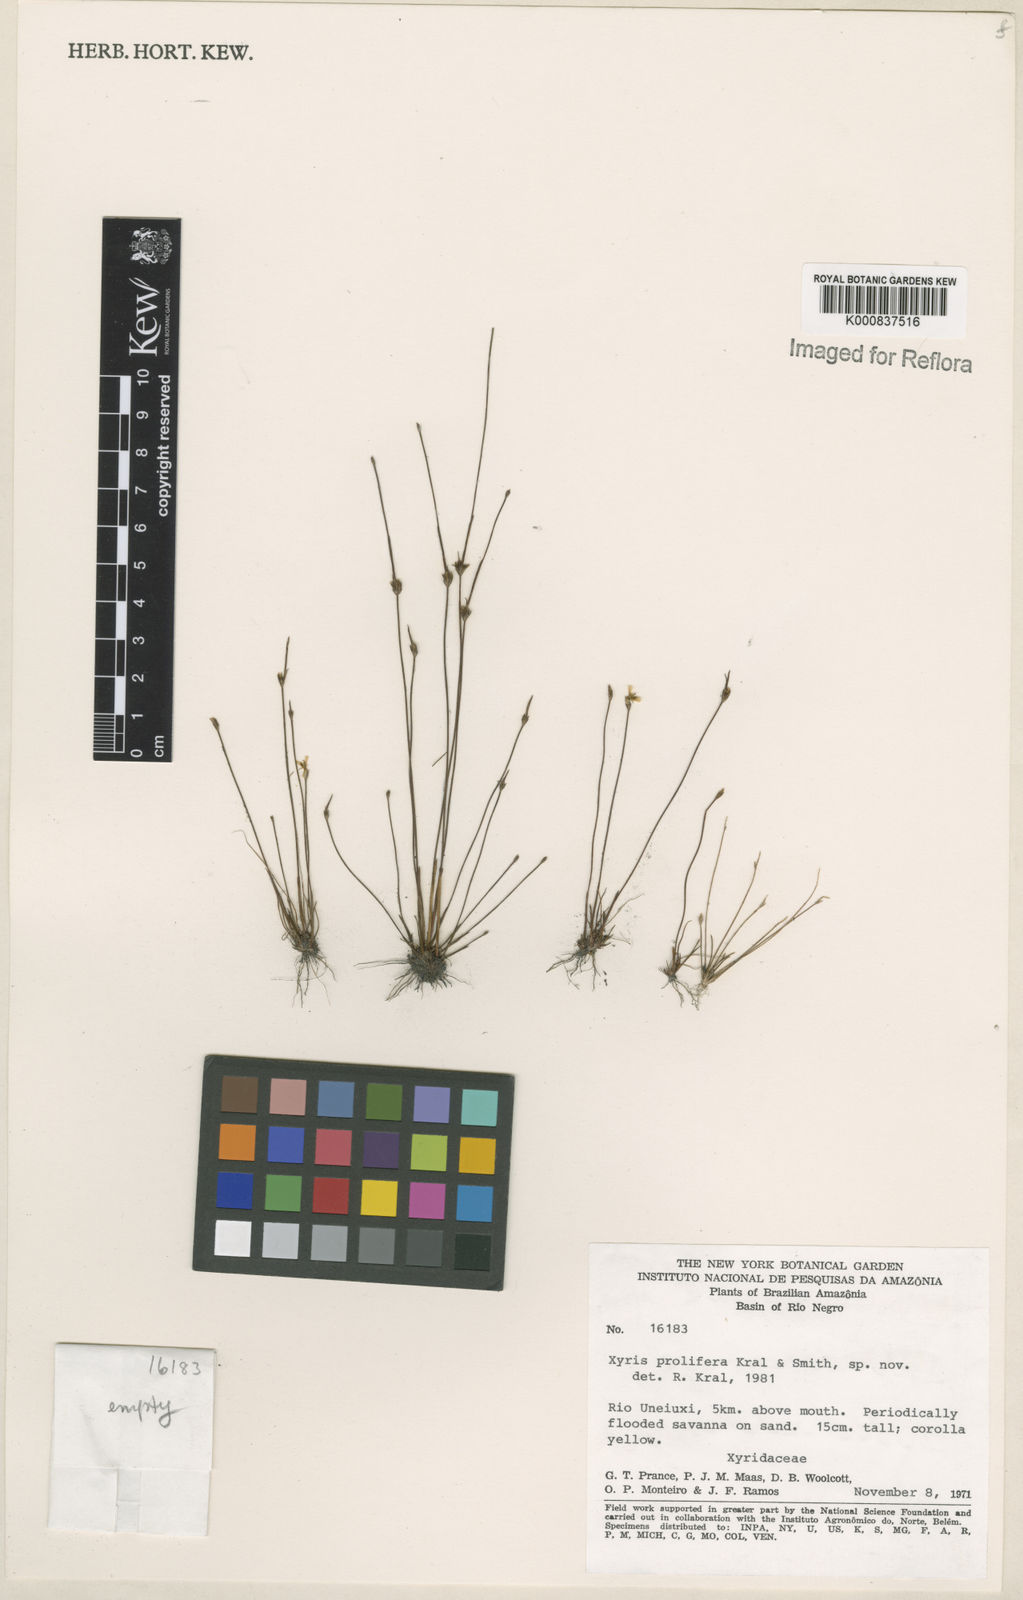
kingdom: Plantae
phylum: Tracheophyta
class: Liliopsida
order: Poales
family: Xyridaceae
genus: Xyris
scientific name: Xyris pterygoblephara
